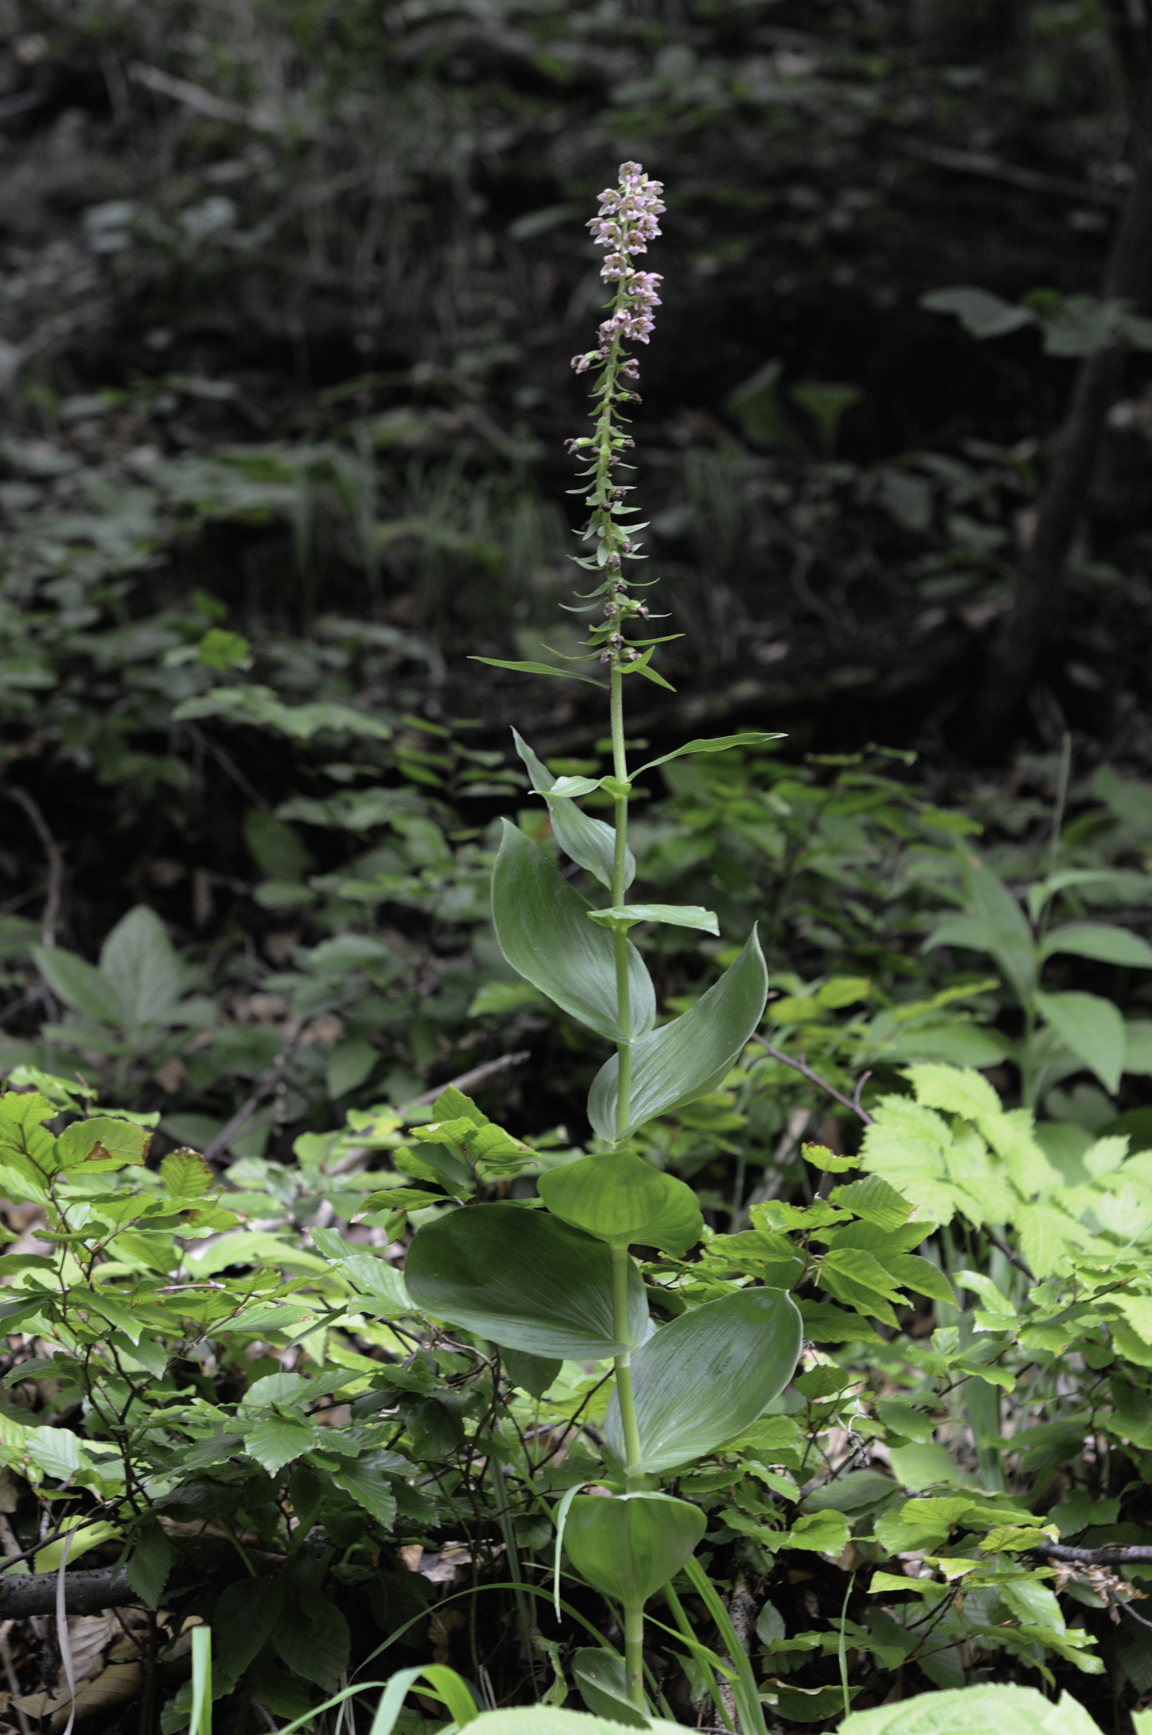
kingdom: Plantae
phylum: Tracheophyta
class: Liliopsida
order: Asparagales
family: Orchidaceae
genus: Epipactis
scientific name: Epipactis helleborine
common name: Broad-leaved helleborine
